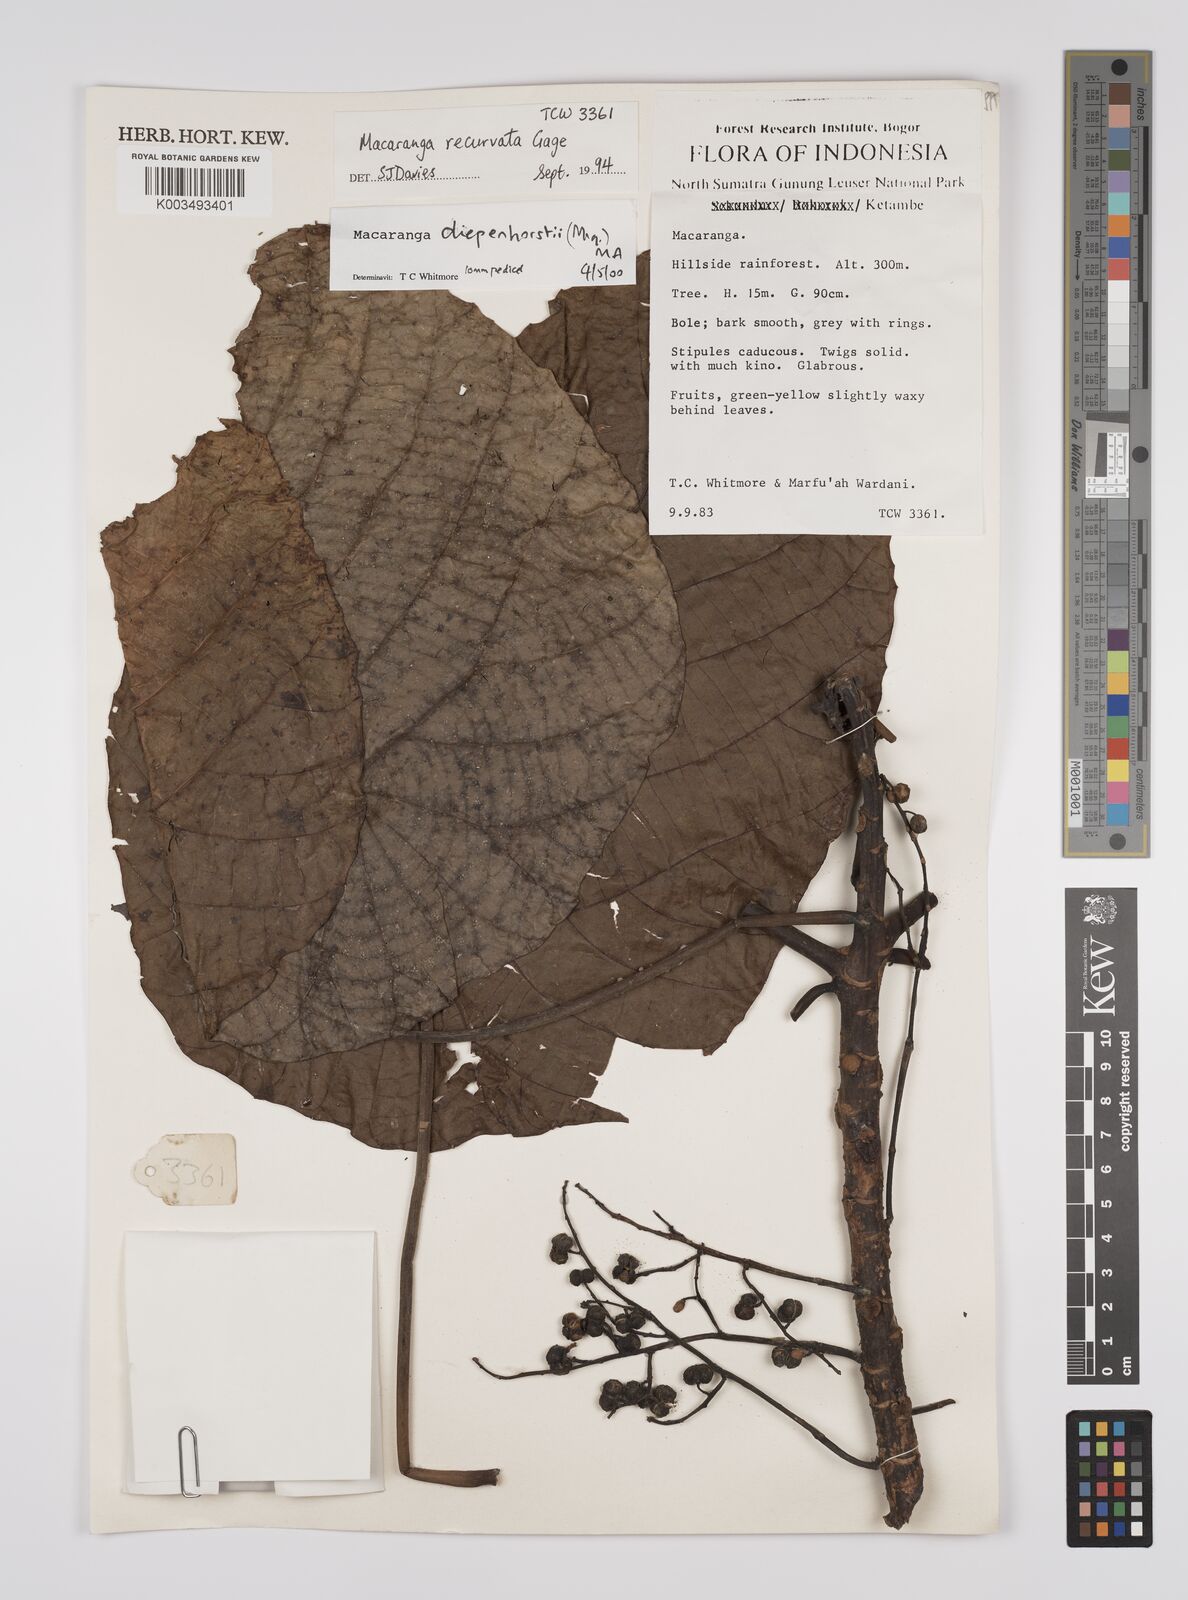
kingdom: Plantae
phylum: Tracheophyta
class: Magnoliopsida
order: Malpighiales
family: Euphorbiaceae
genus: Macaranga
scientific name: Macaranga diepenhorstii
